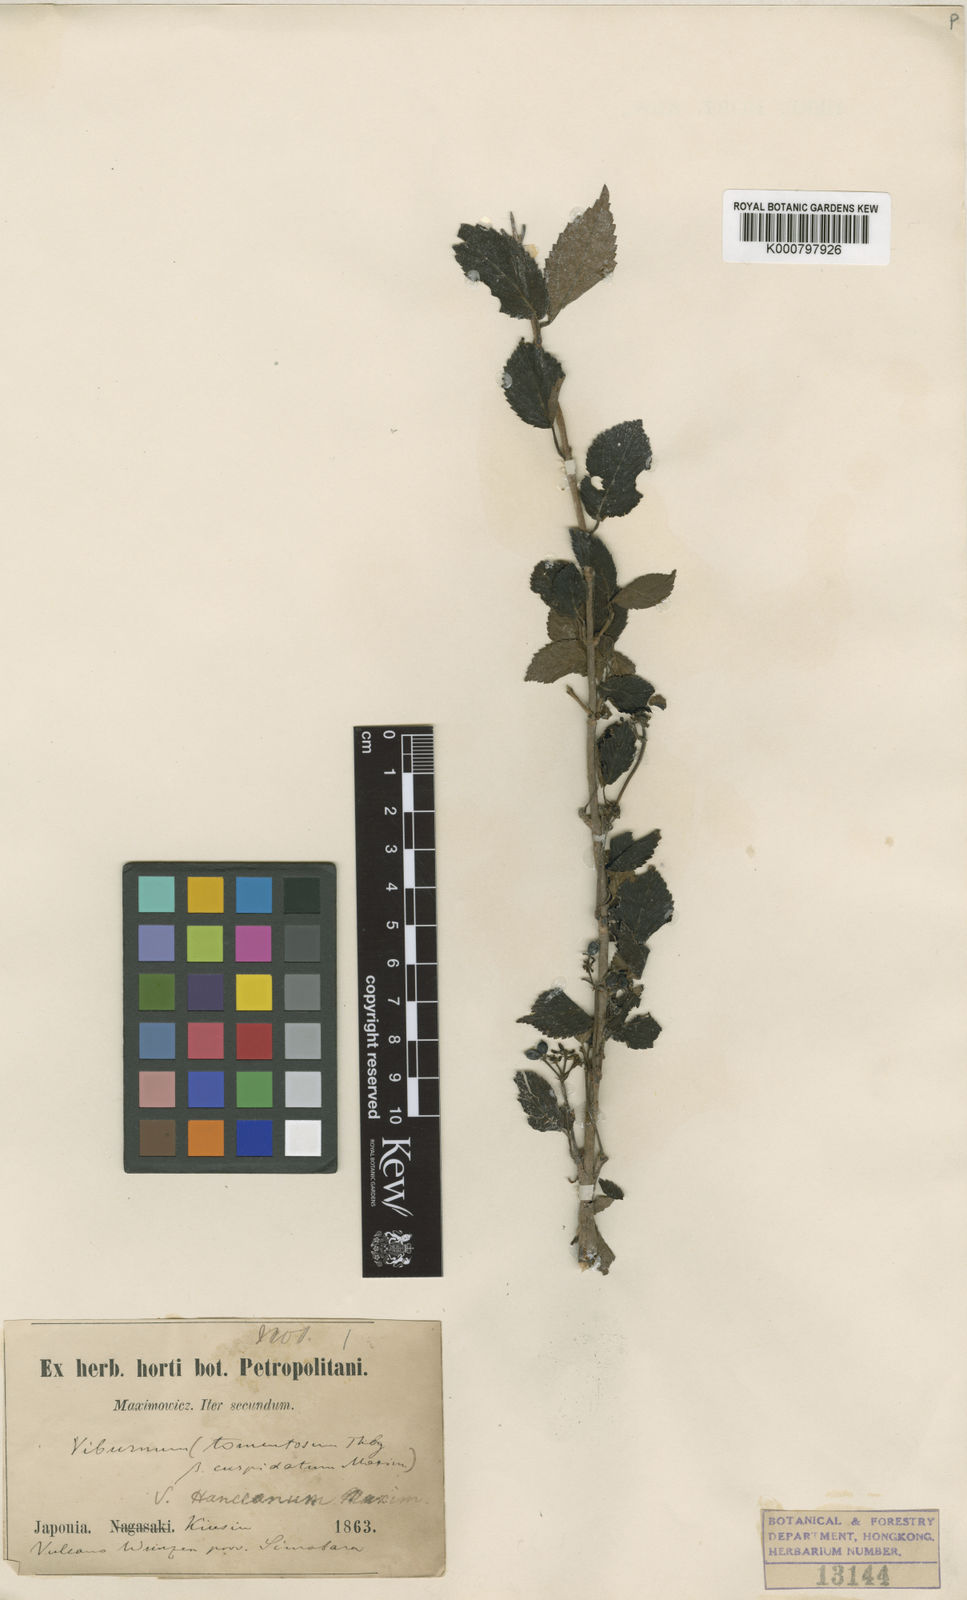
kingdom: Plantae
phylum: Tracheophyta
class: Magnoliopsida
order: Dipsacales
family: Viburnaceae
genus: Viburnum
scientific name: Viburnum lantana
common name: Wayfaring tree
